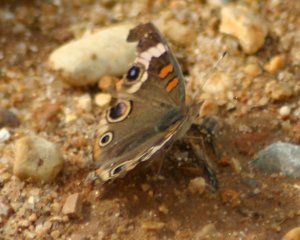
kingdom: Animalia
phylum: Arthropoda
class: Insecta
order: Lepidoptera
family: Nymphalidae
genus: Junonia
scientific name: Junonia coenia
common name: Common Buckeye
